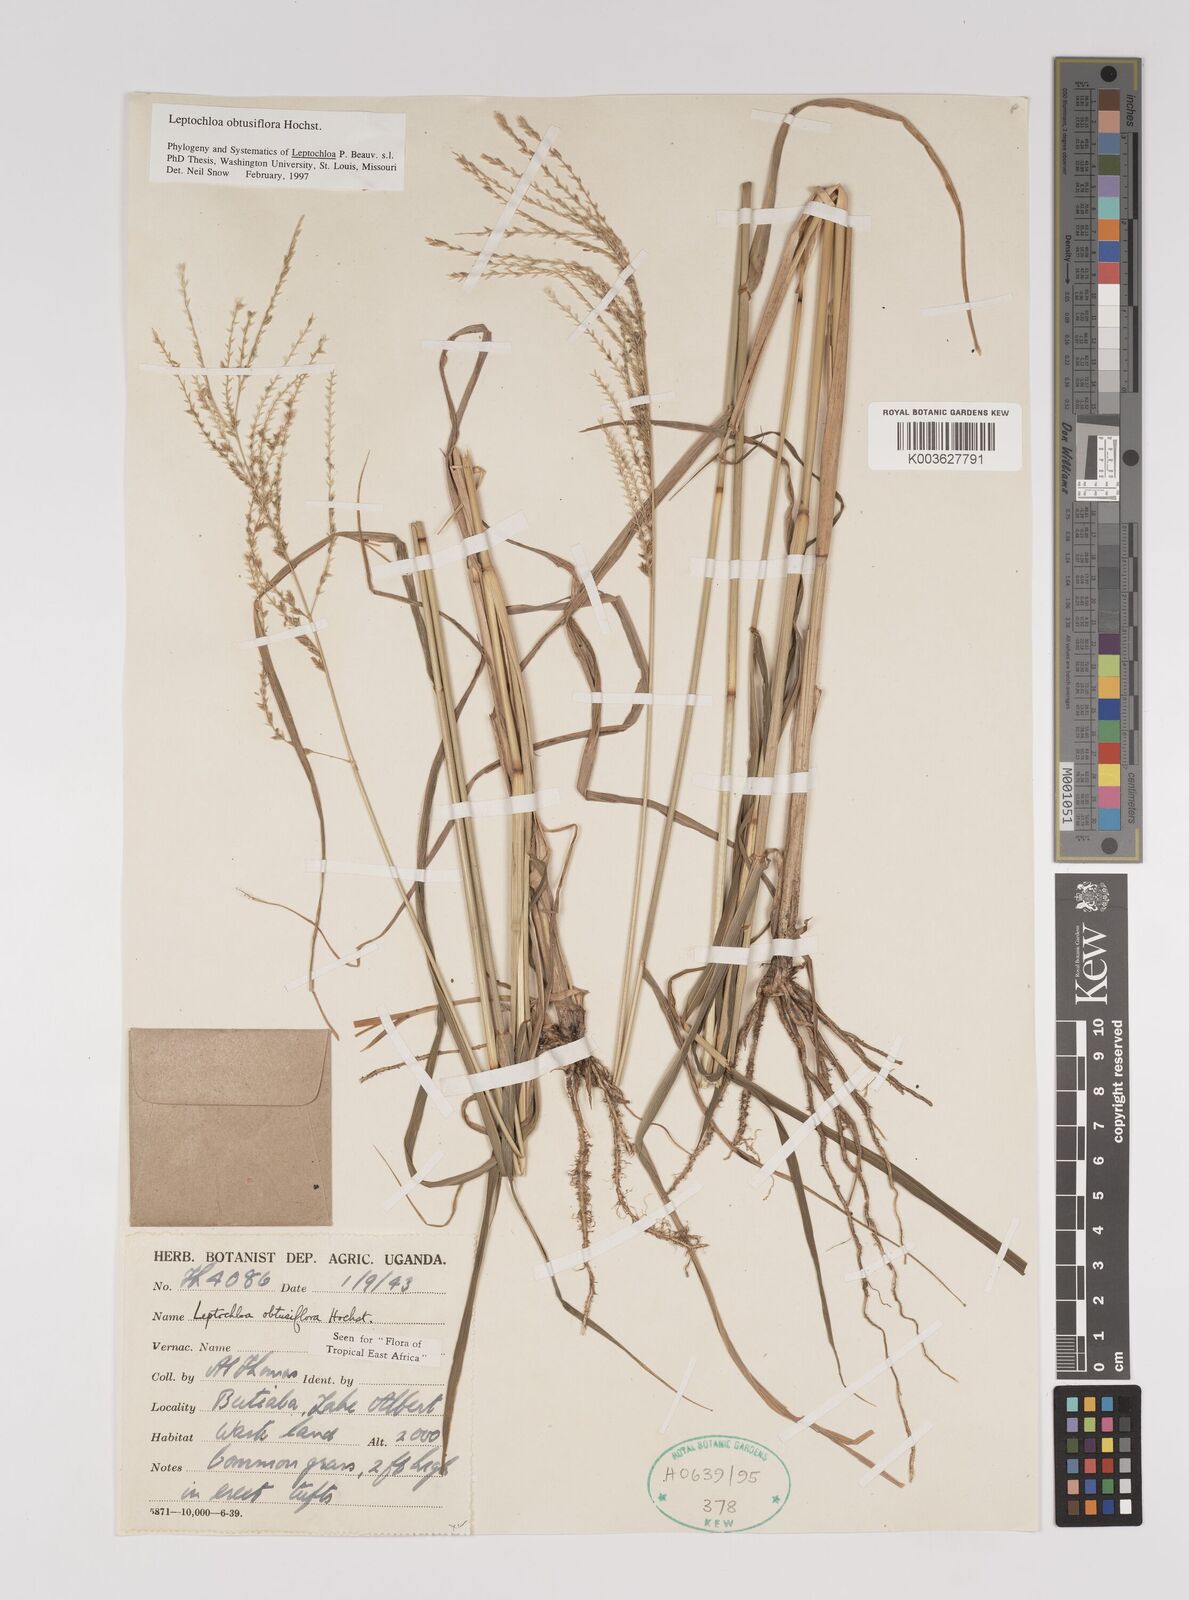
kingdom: Plantae
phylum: Tracheophyta
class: Liliopsida
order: Poales
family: Poaceae
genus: Disakisperma
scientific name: Disakisperma obtusiflorum
